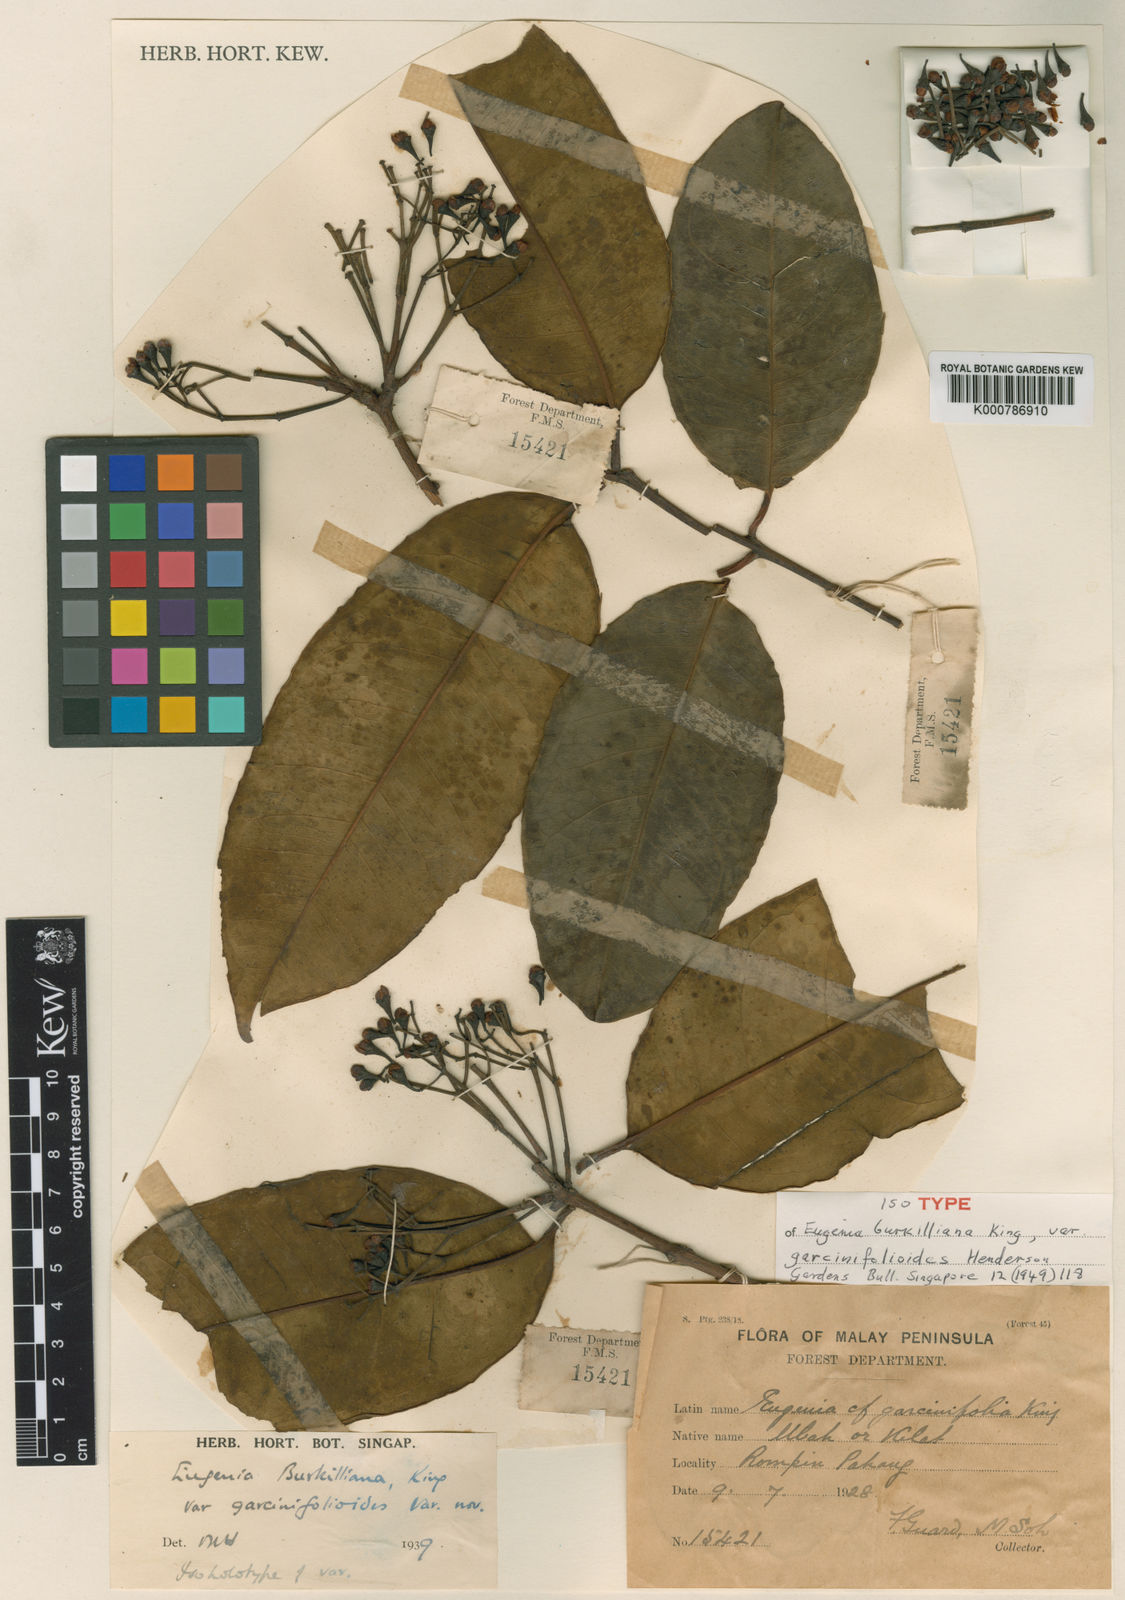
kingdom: Plantae
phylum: Tracheophyta
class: Magnoliopsida
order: Myrtales
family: Myrtaceae
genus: Syzygium
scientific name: Syzygium burkillianum
